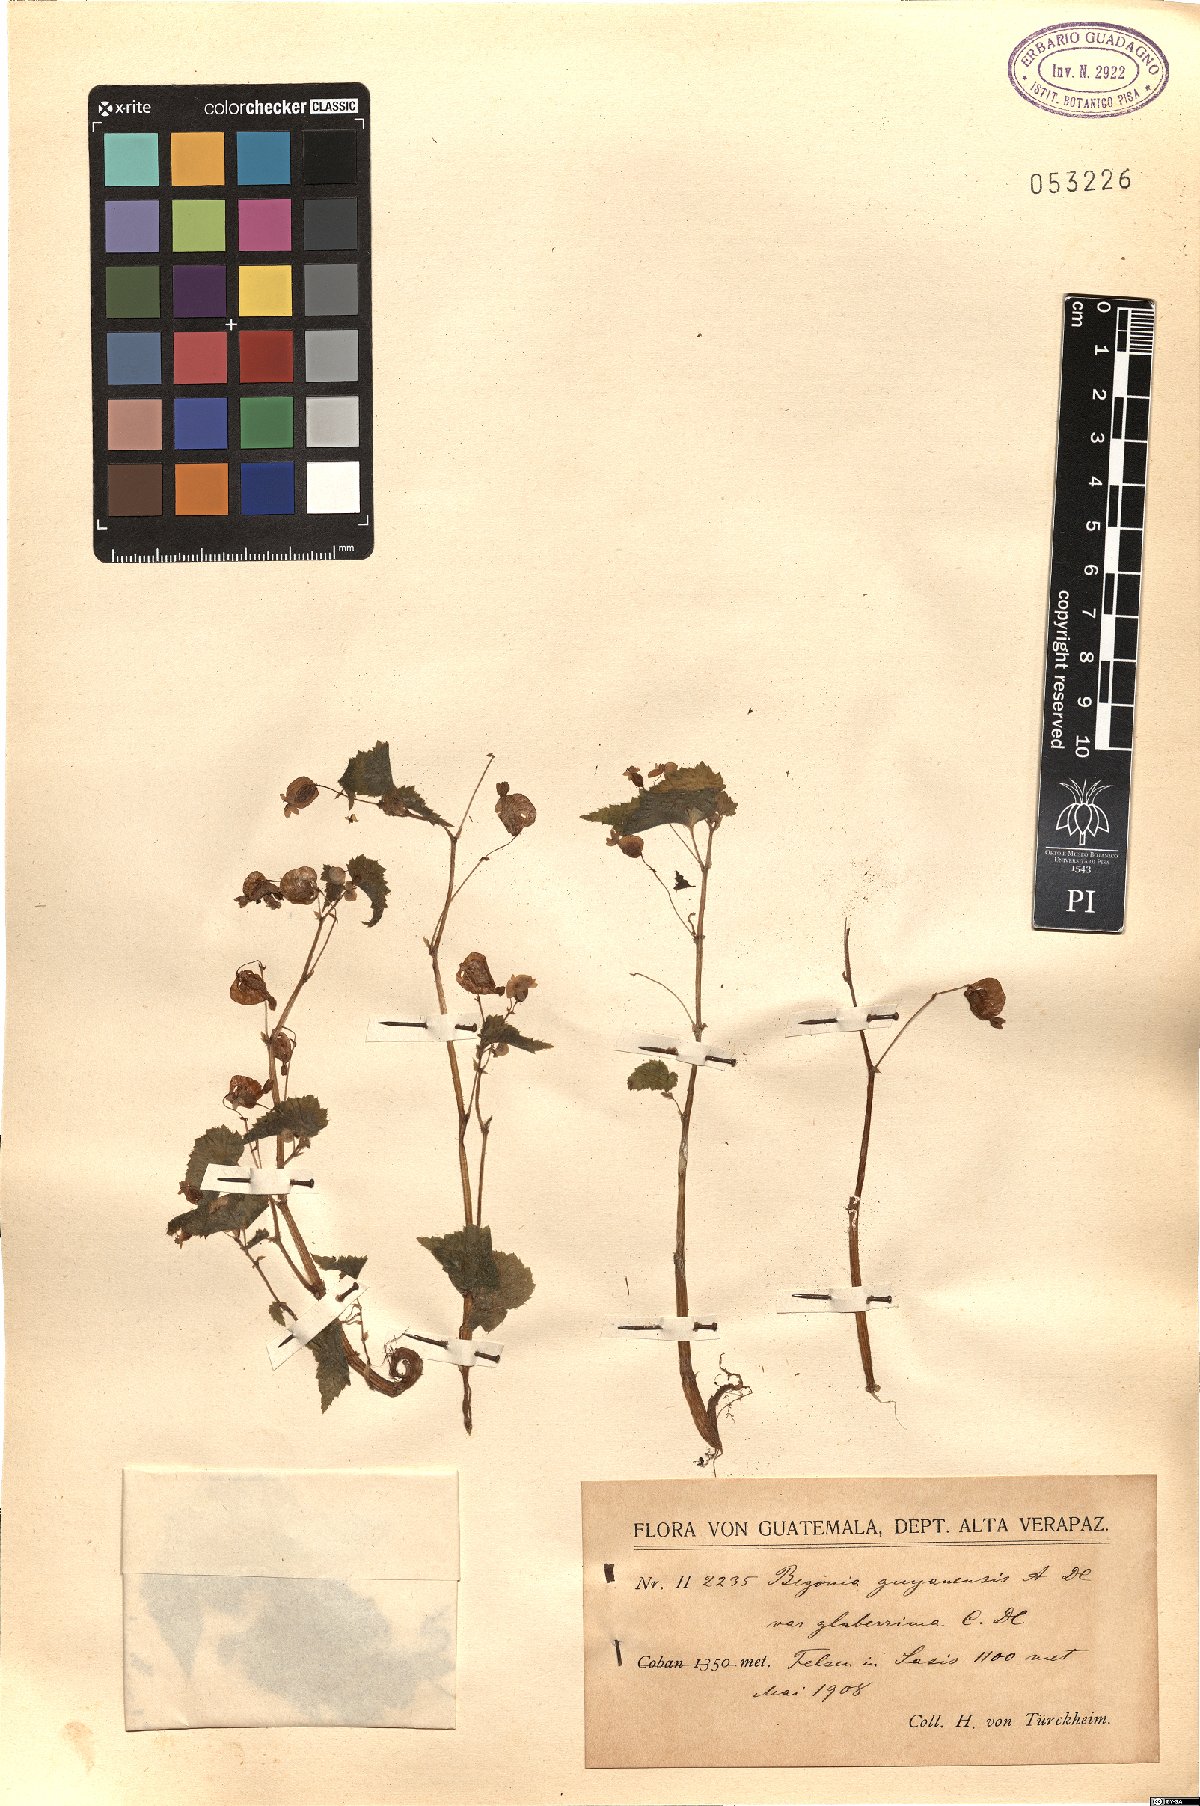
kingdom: Plantae
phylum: Tracheophyta
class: Magnoliopsida
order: Cucurbitales
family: Begoniaceae
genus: Begonia
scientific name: Begonia wallichiana
